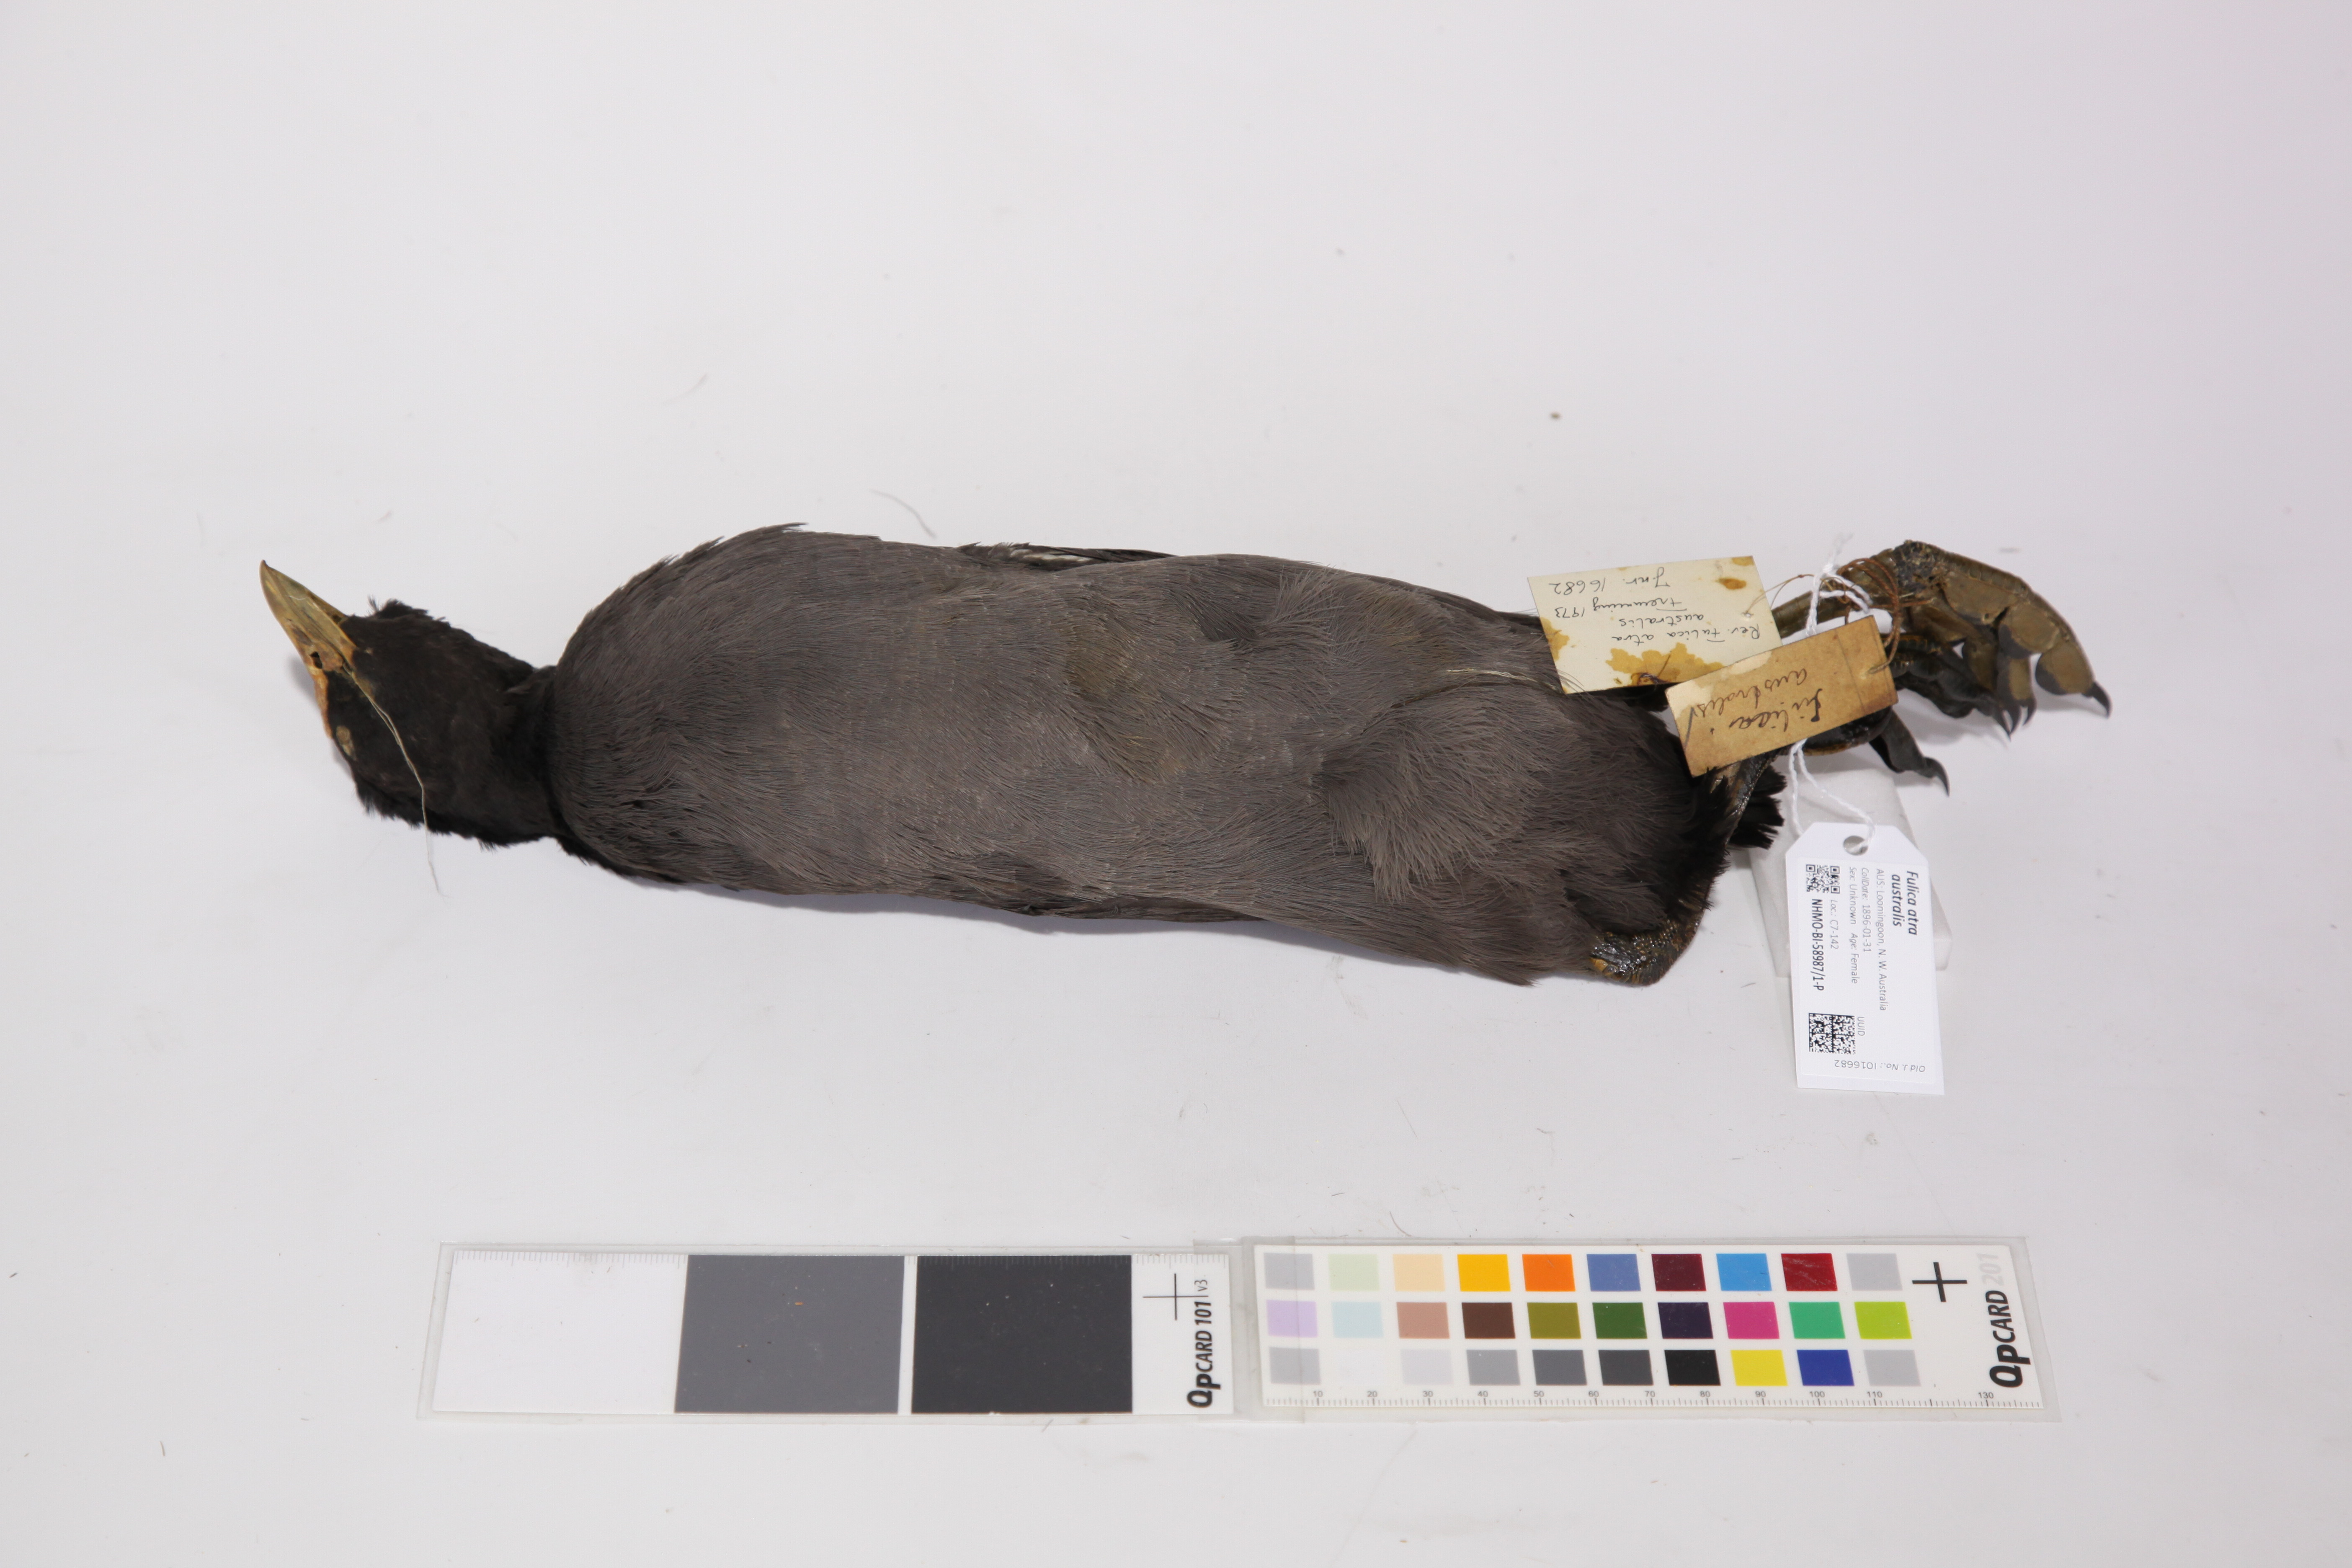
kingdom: Animalia
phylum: Chordata
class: Aves
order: Gruiformes
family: Rallidae
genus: Fulica
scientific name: Fulica atra
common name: Eurasian coot
